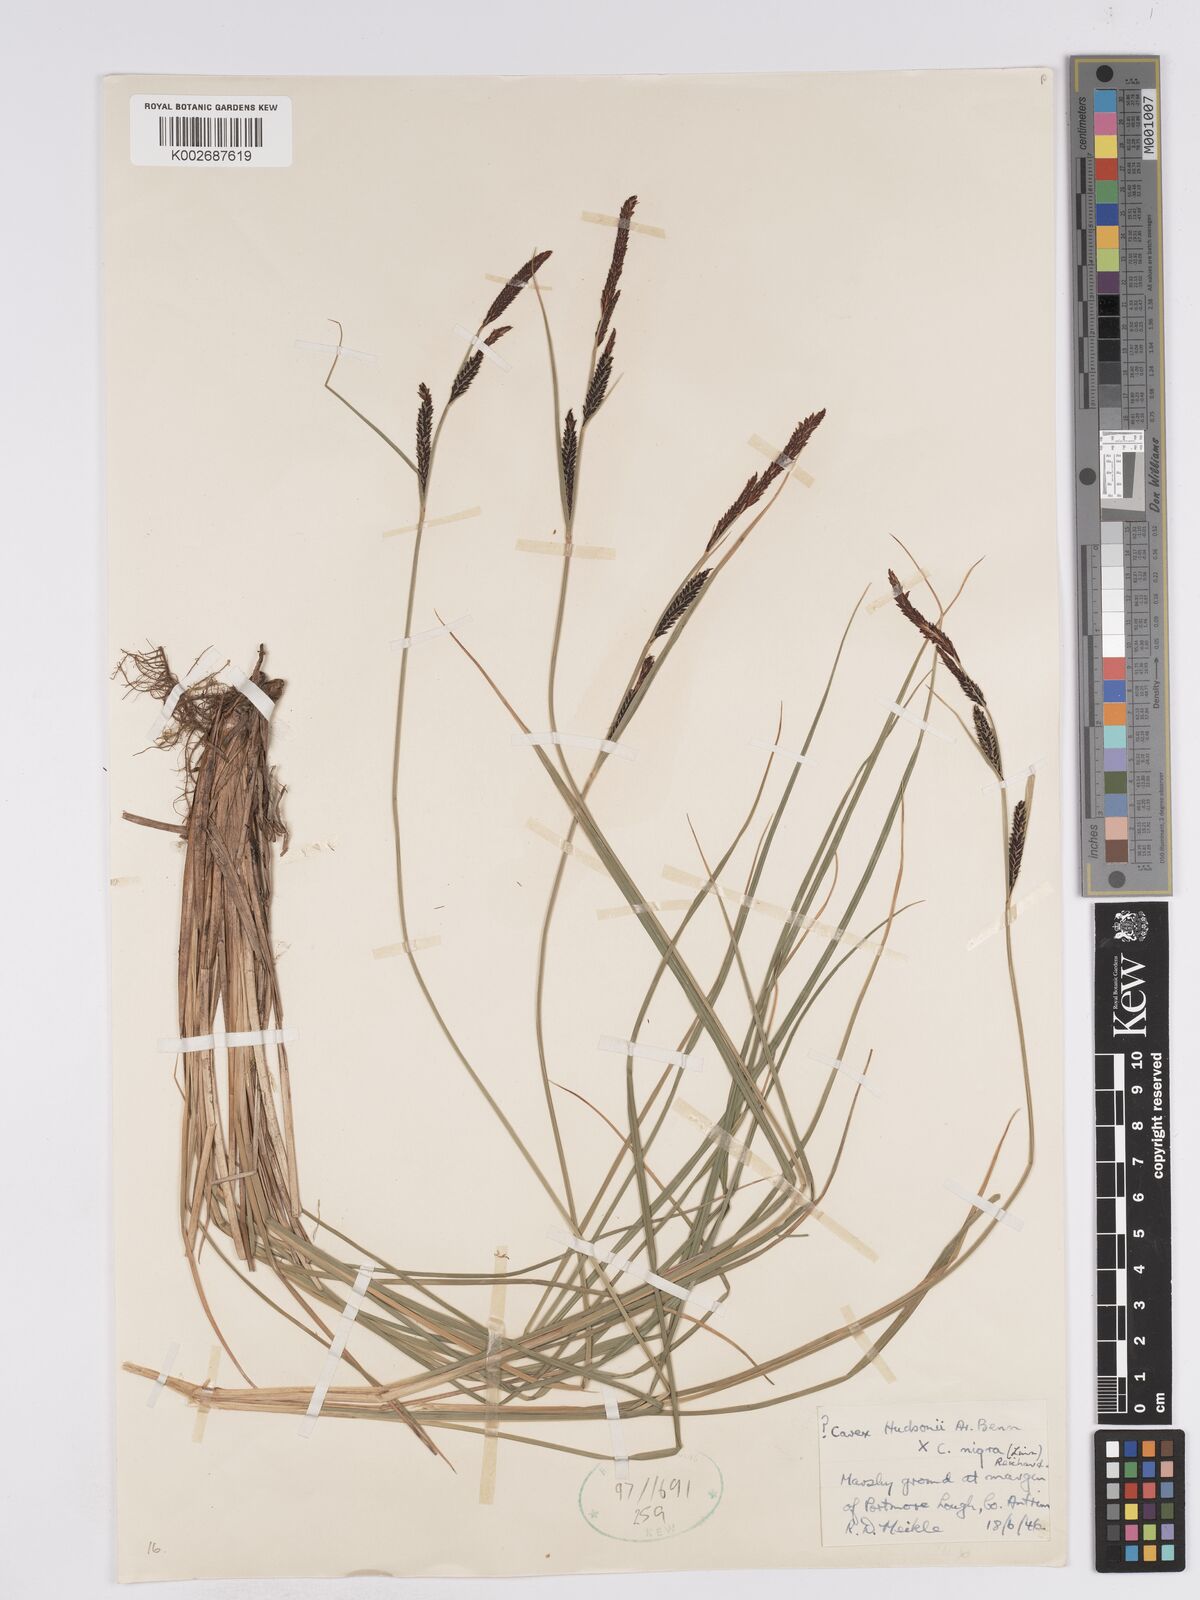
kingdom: Plantae
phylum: Tracheophyta
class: Liliopsida
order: Poales
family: Cyperaceae
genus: Carex
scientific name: Carex
